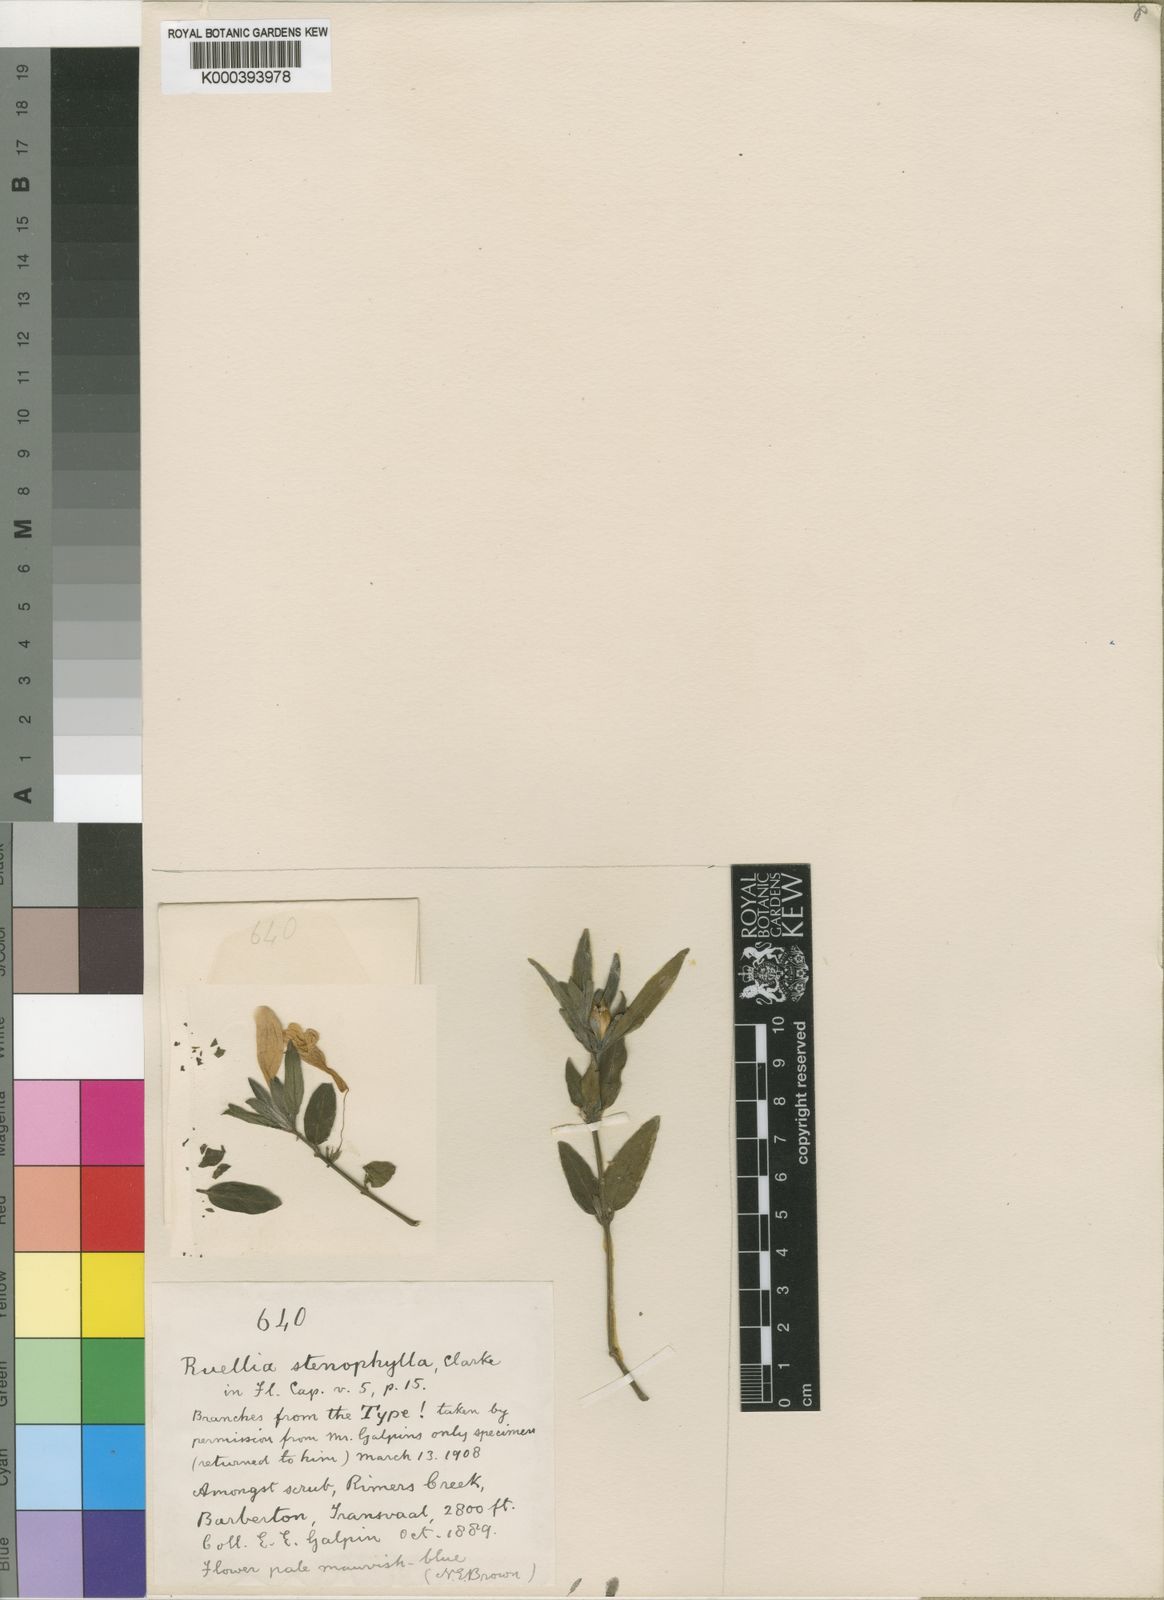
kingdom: Plantae
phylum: Tracheophyta
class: Magnoliopsida
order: Lamiales
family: Acanthaceae
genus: Ruellia
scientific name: Ruellia stenophylla
